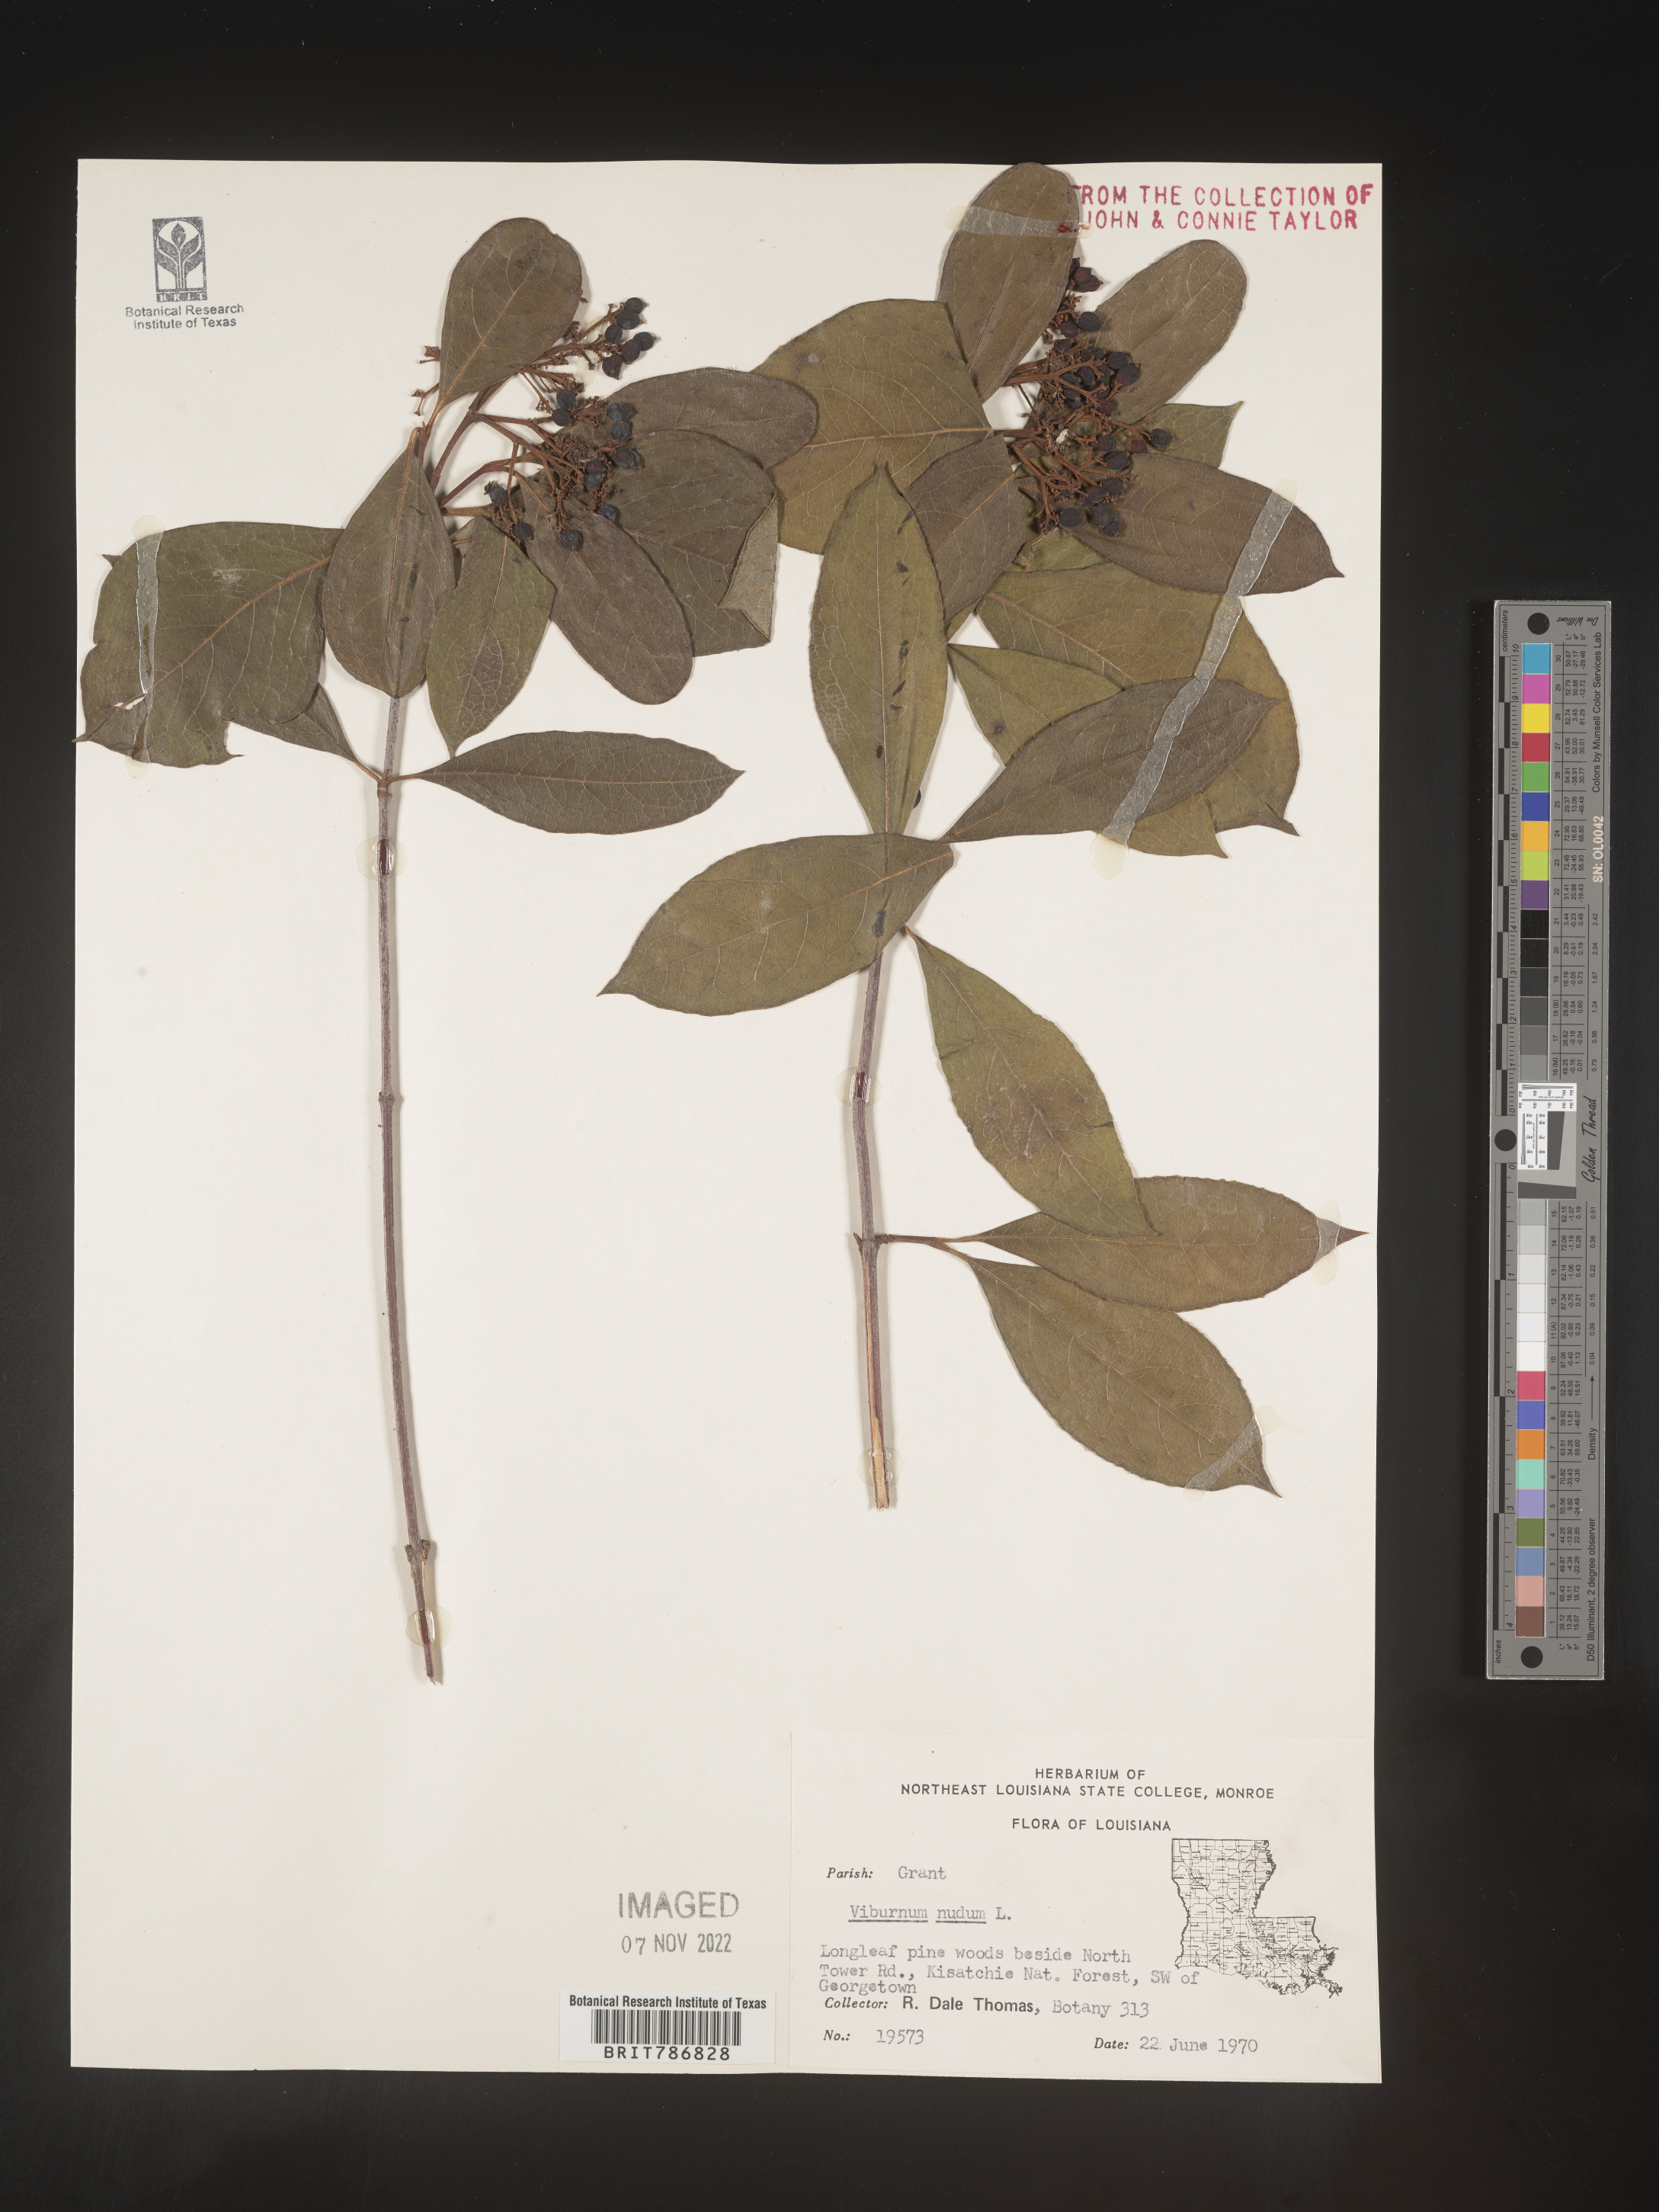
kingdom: Plantae
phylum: Tracheophyta
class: Magnoliopsida
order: Dipsacales
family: Viburnaceae
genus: Viburnum
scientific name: Viburnum nudum
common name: Possum haw
